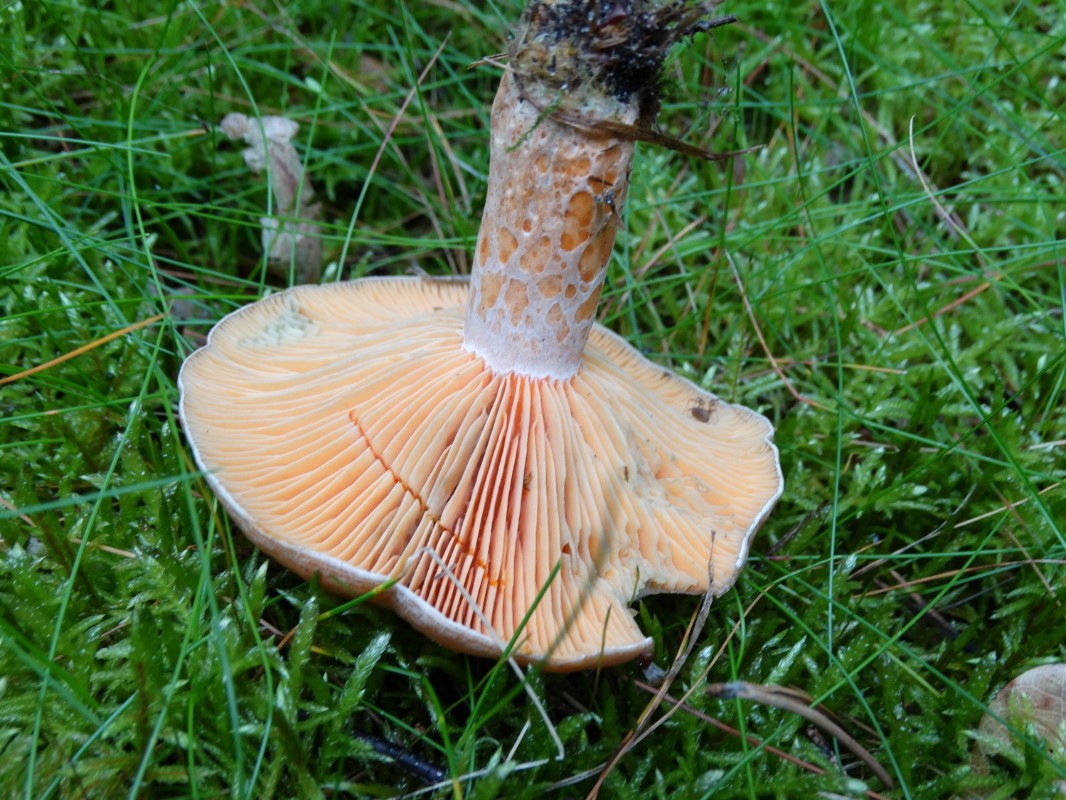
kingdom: Fungi
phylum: Basidiomycota
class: Agaricomycetes
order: Russulales
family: Russulaceae
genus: Lactarius
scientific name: Lactarius deliciosus
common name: velsmagende mælkehat
